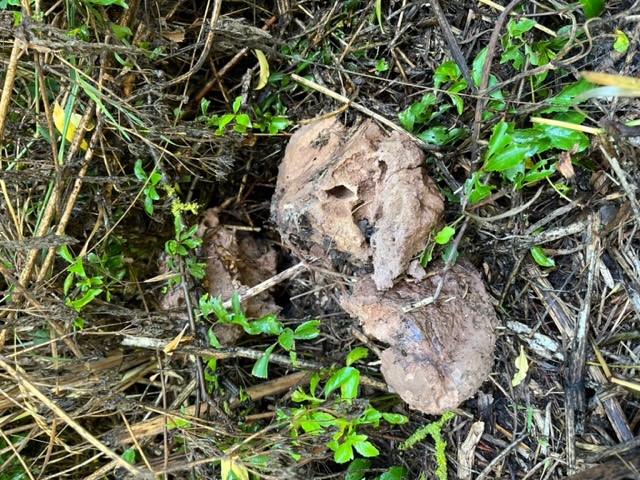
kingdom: Fungi
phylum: Basidiomycota
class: Agaricomycetes
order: Agaricales
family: Lycoperdaceae
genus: Calvatia
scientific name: Calvatia gigantea
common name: kæmpestøvbold
